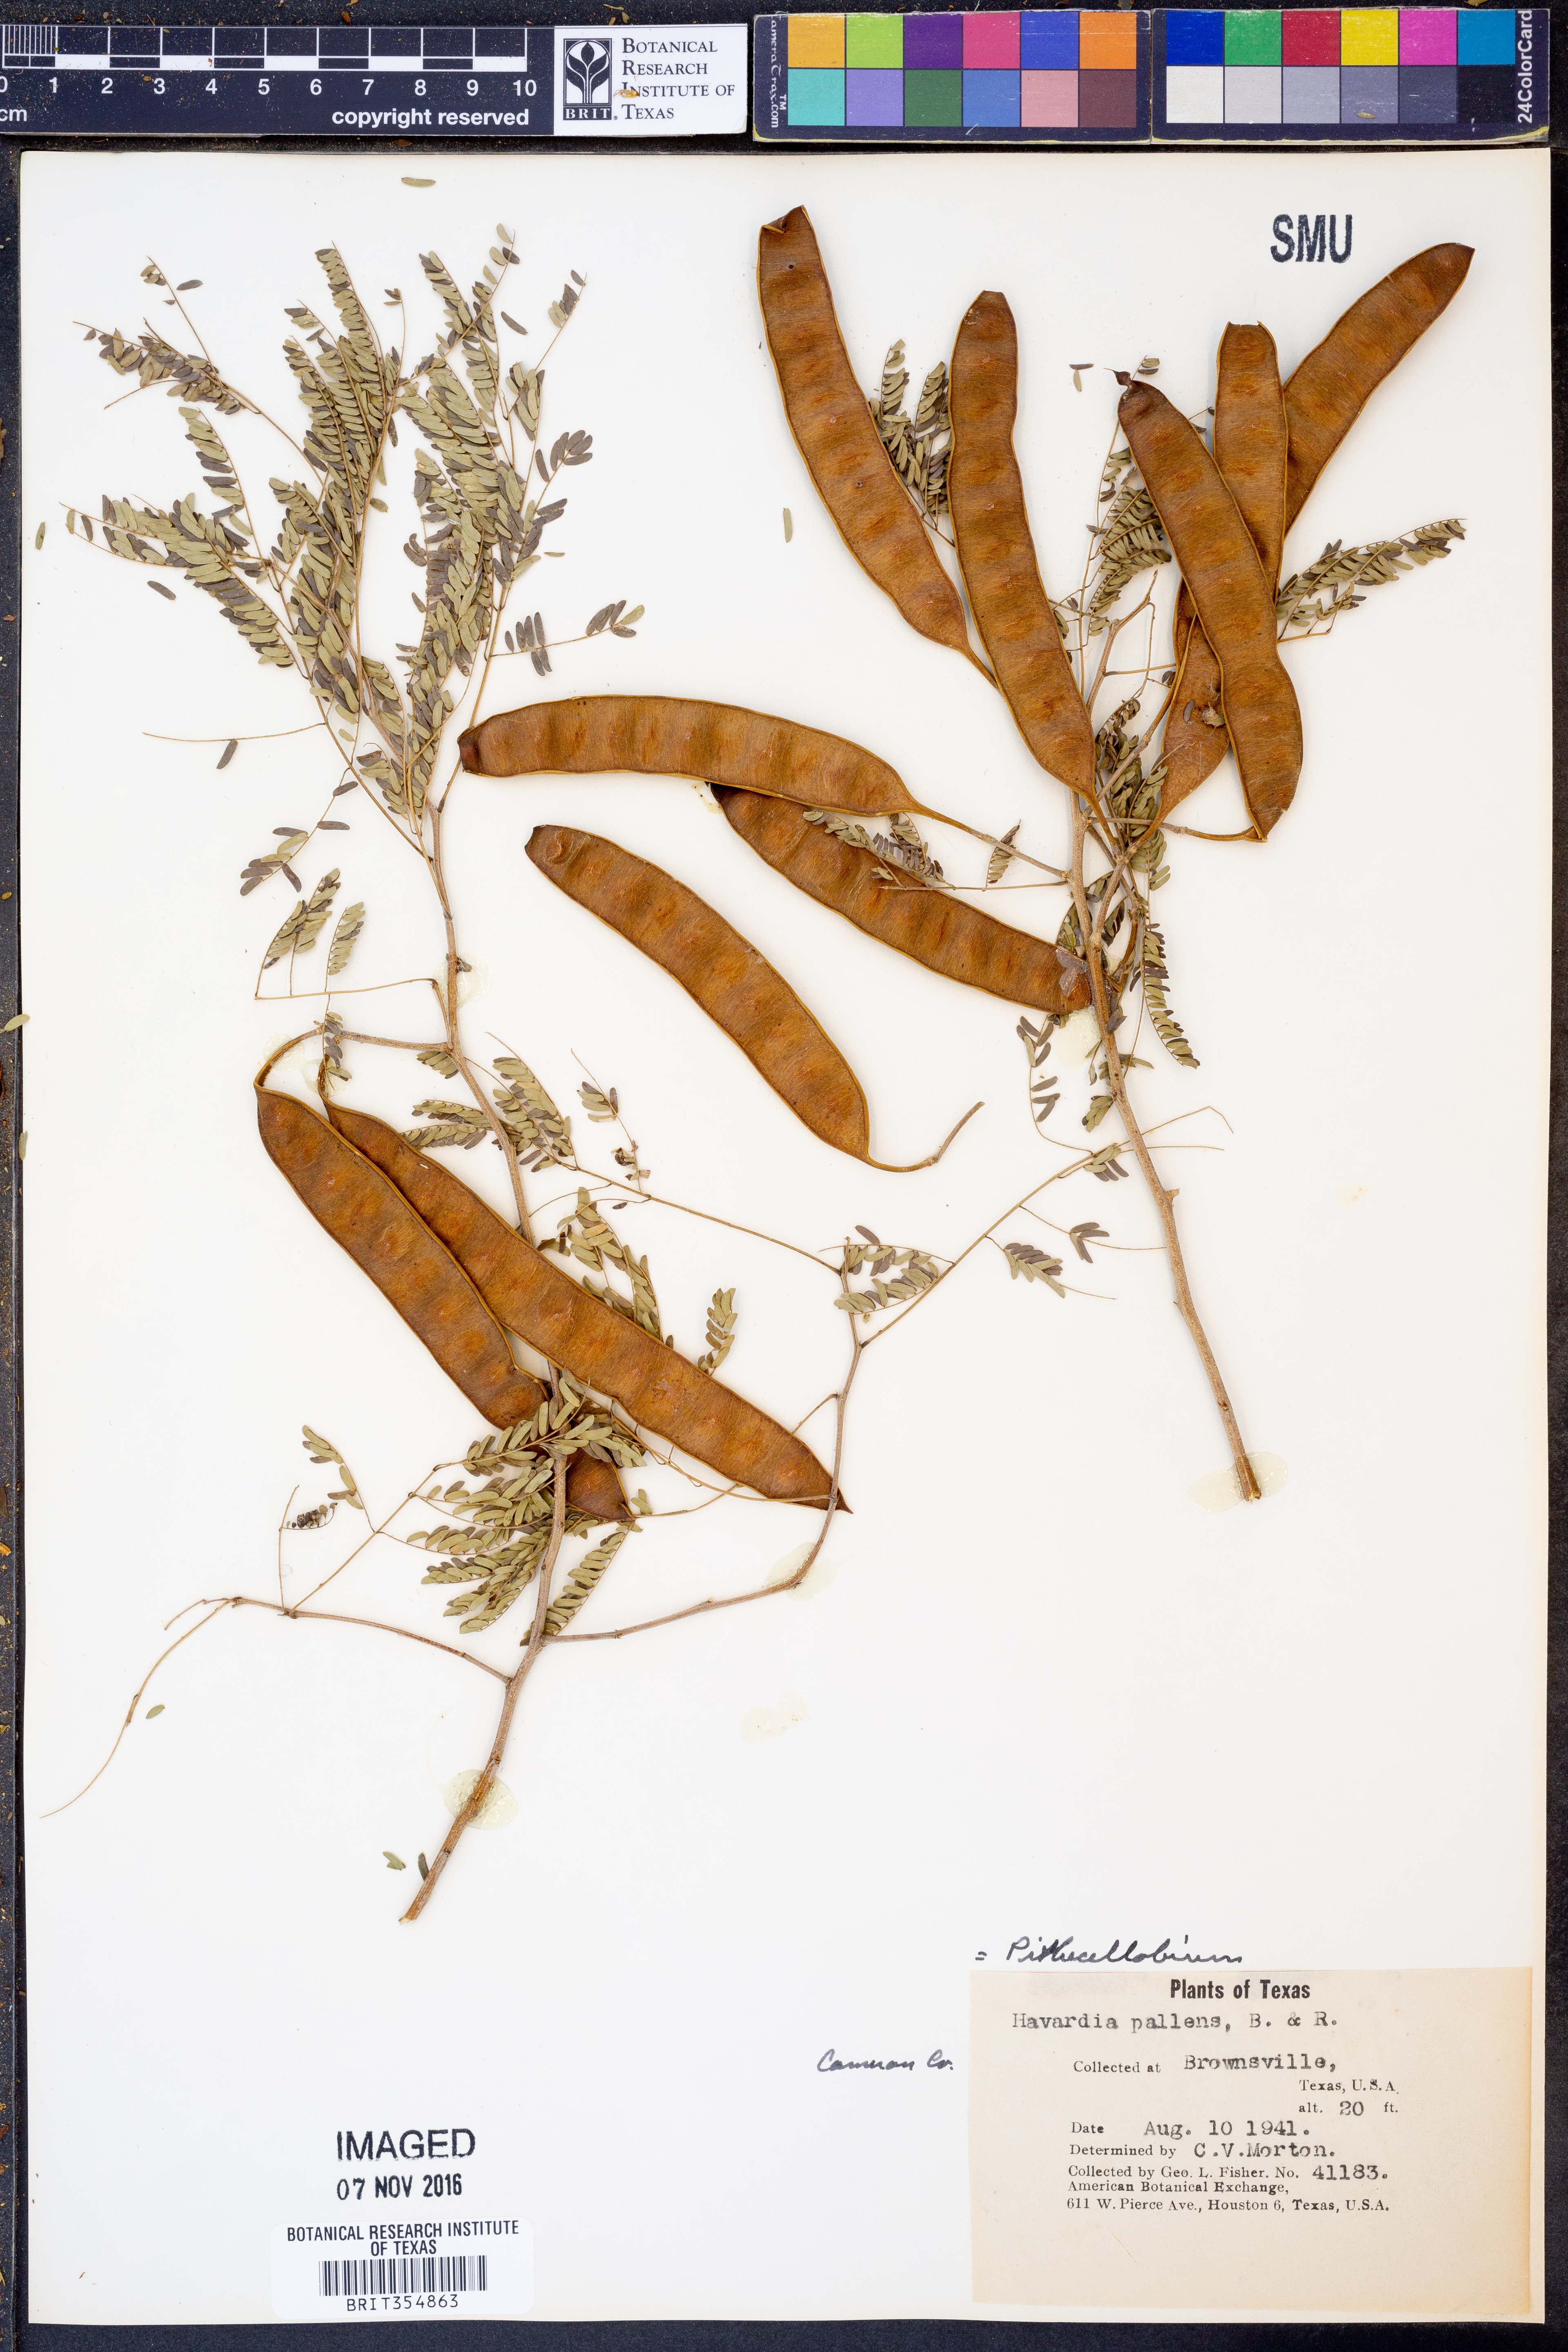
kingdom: Plantae
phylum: Tracheophyta
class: Magnoliopsida
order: Fabales
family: Fabaceae
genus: Havardia
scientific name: Havardia pallens
